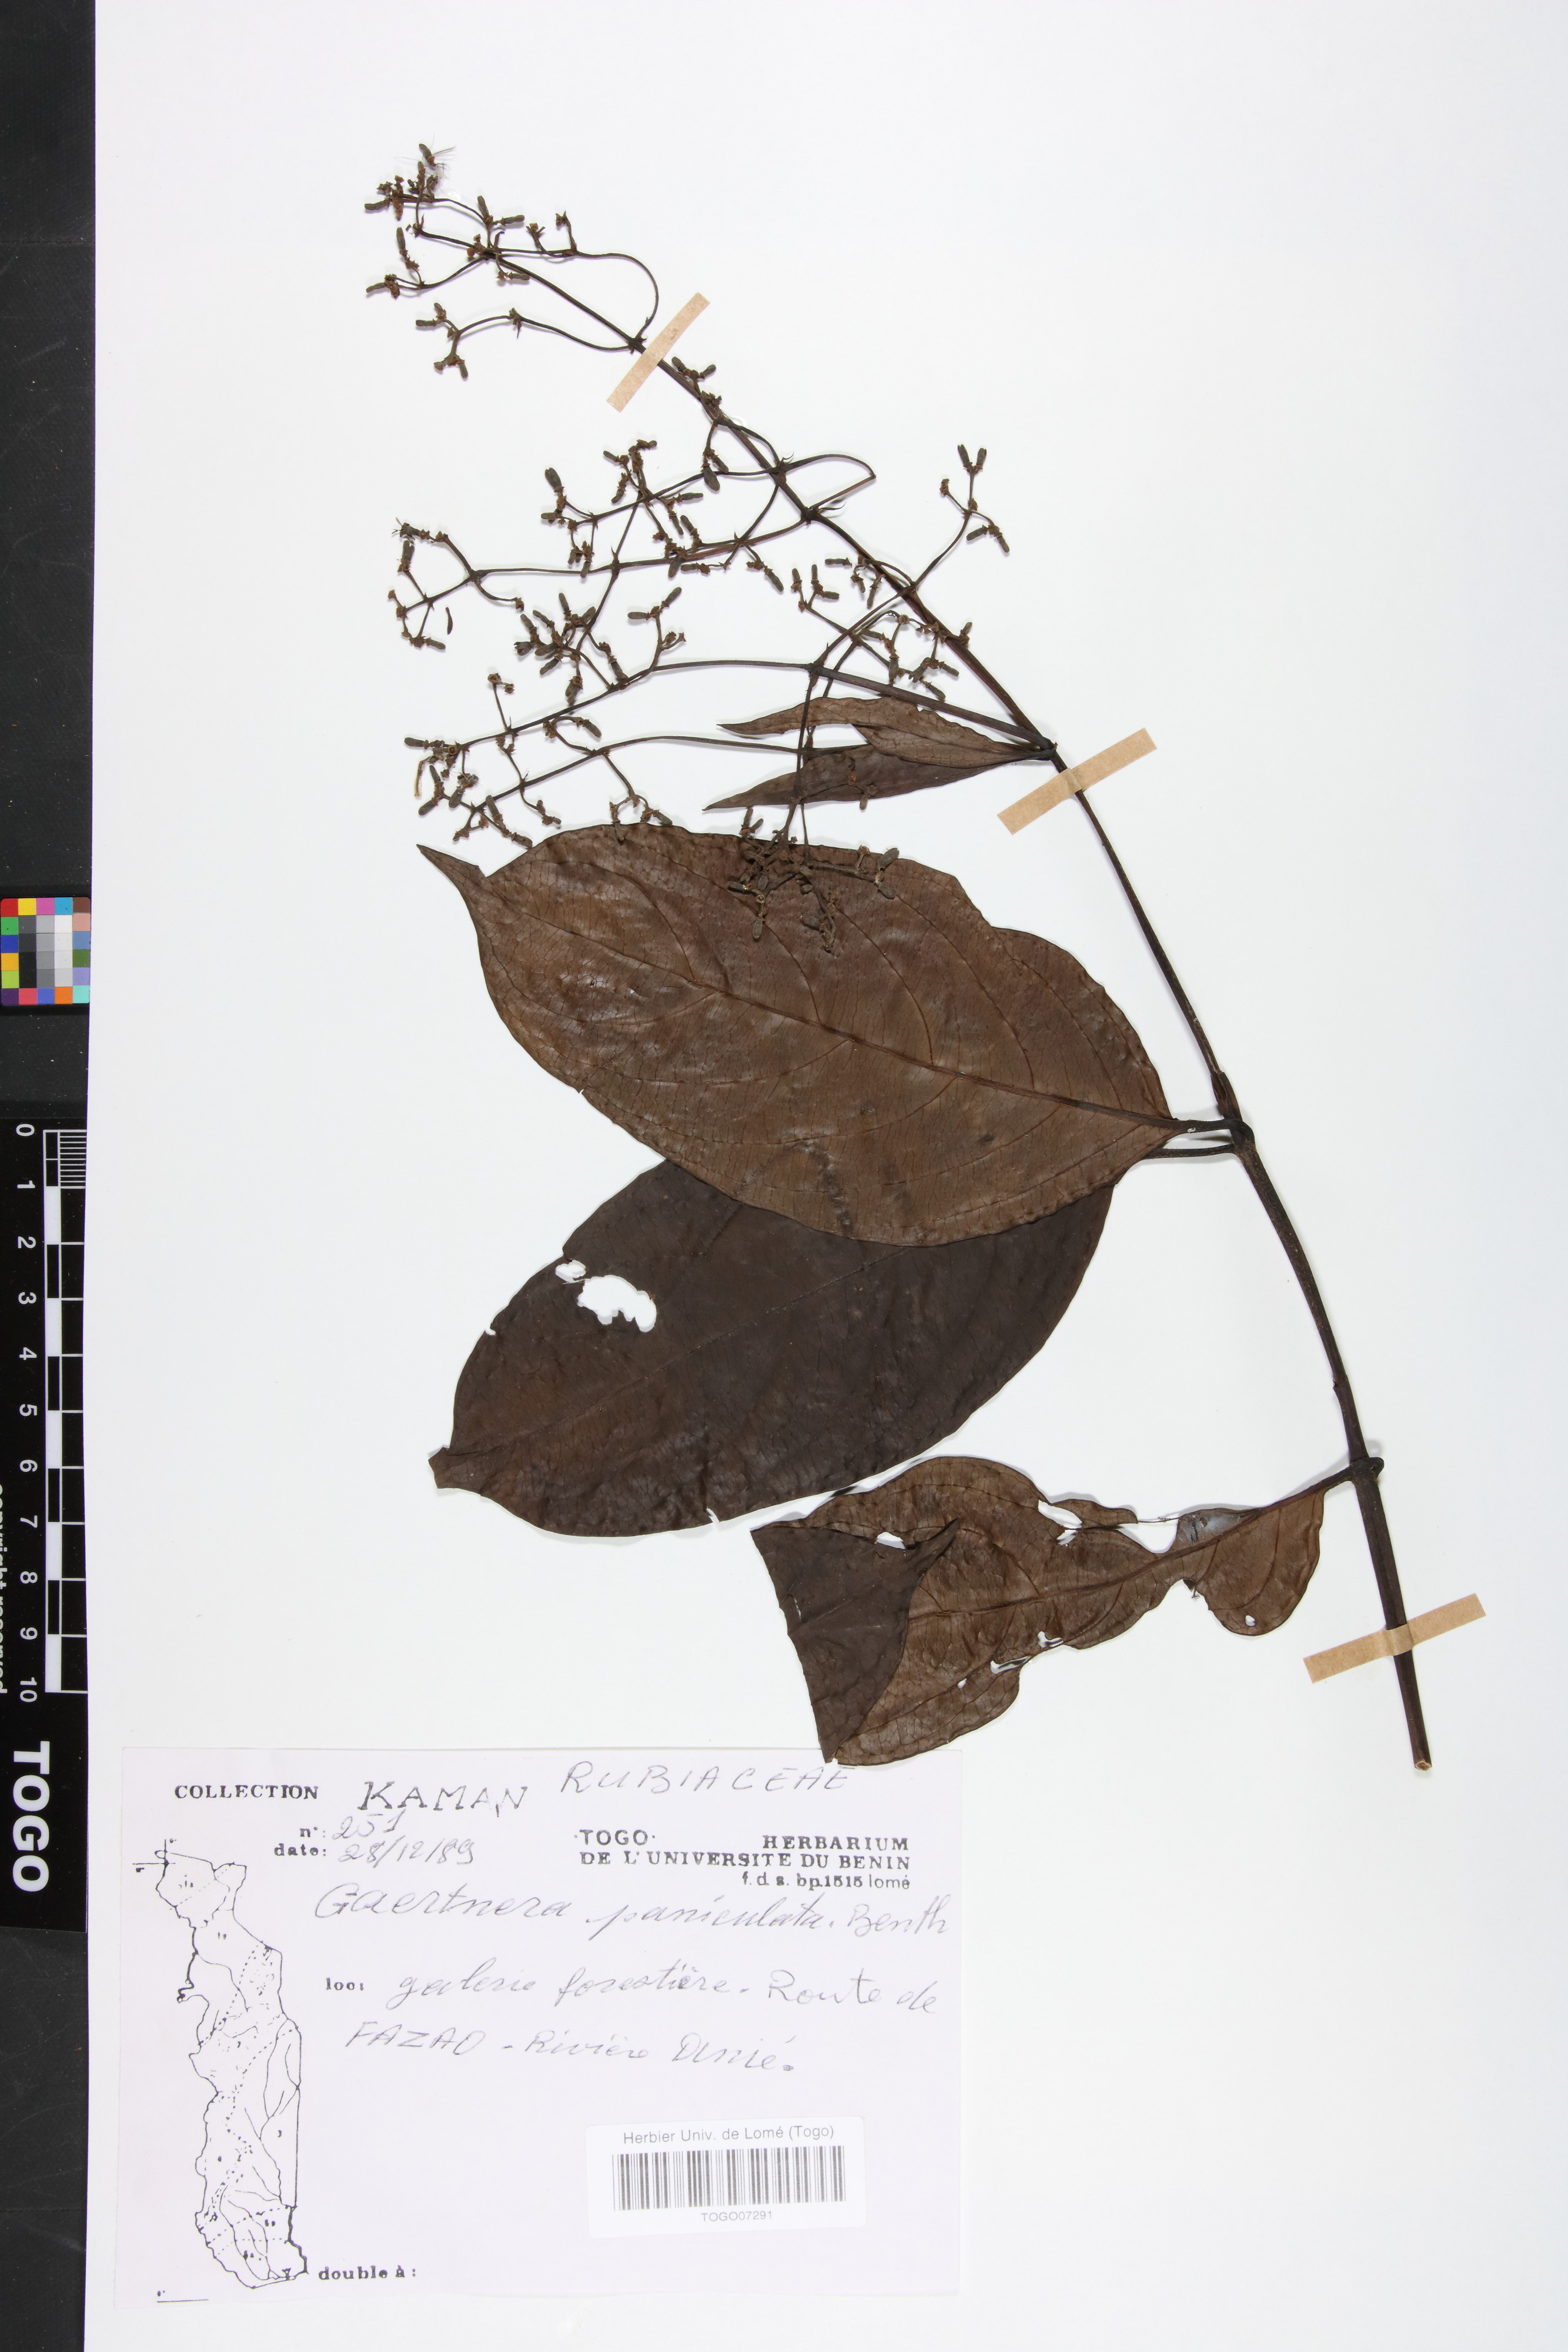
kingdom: Plantae
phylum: Tracheophyta
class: Magnoliopsida
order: Gentianales
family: Rubiaceae
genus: Gaertnera
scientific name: Gaertnera paniculata
